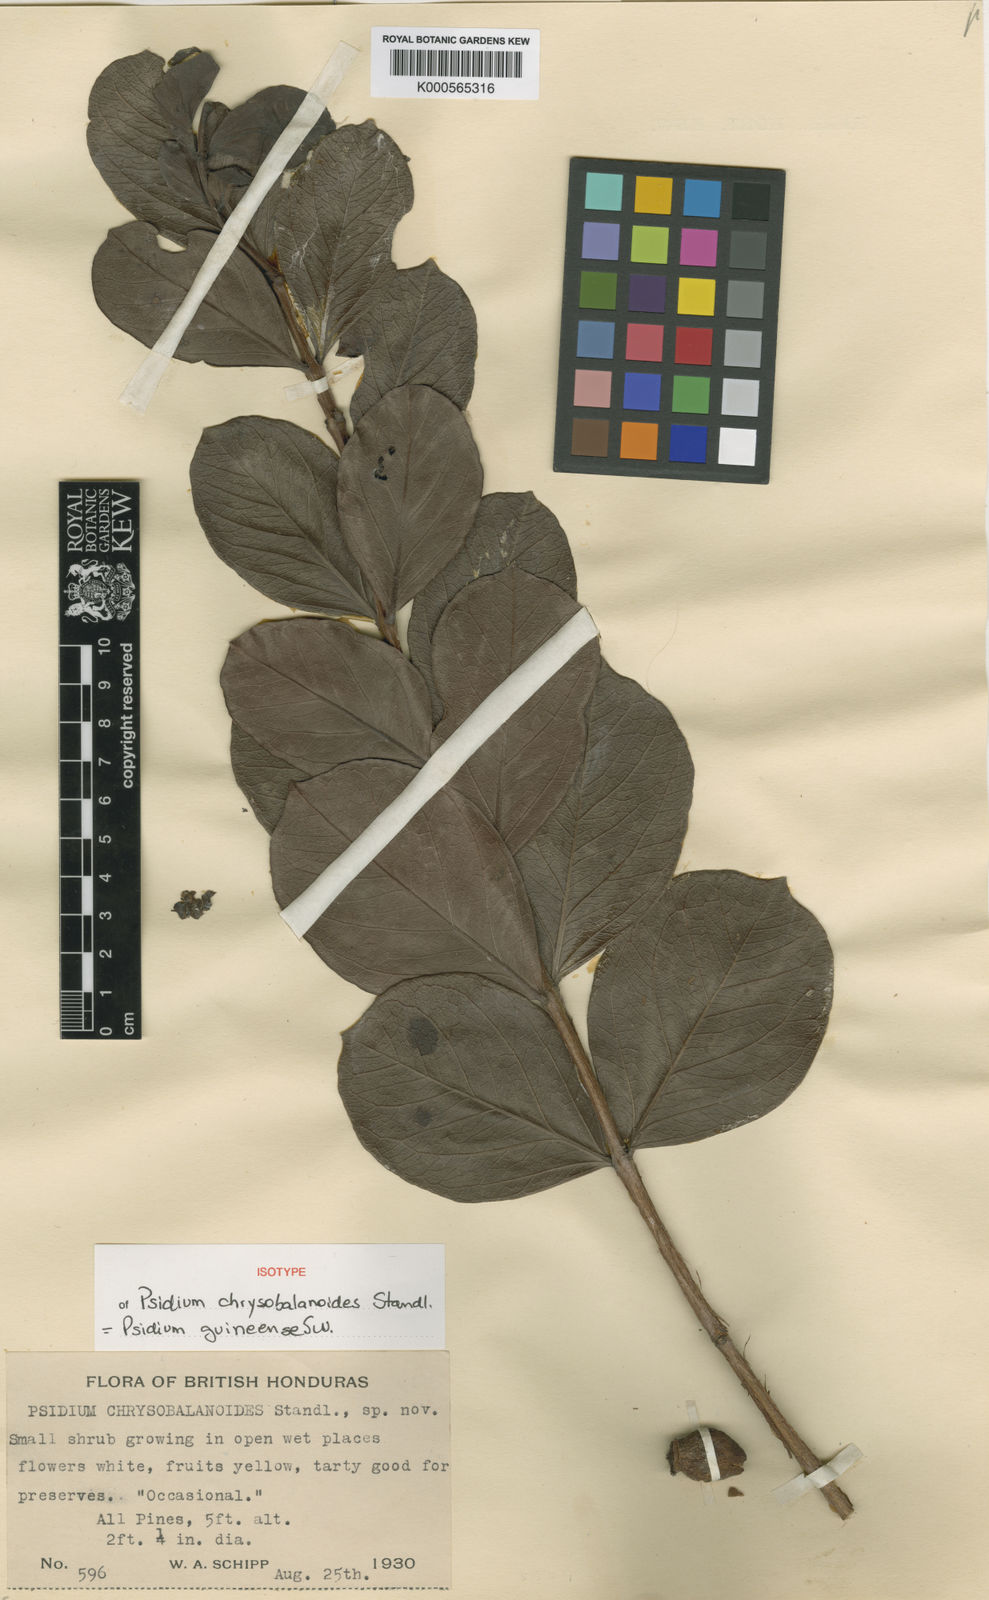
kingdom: Plantae
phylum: Tracheophyta
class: Magnoliopsida
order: Myrtales
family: Myrtaceae
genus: Psidium
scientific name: Psidium guineense
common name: Brazilian guava
